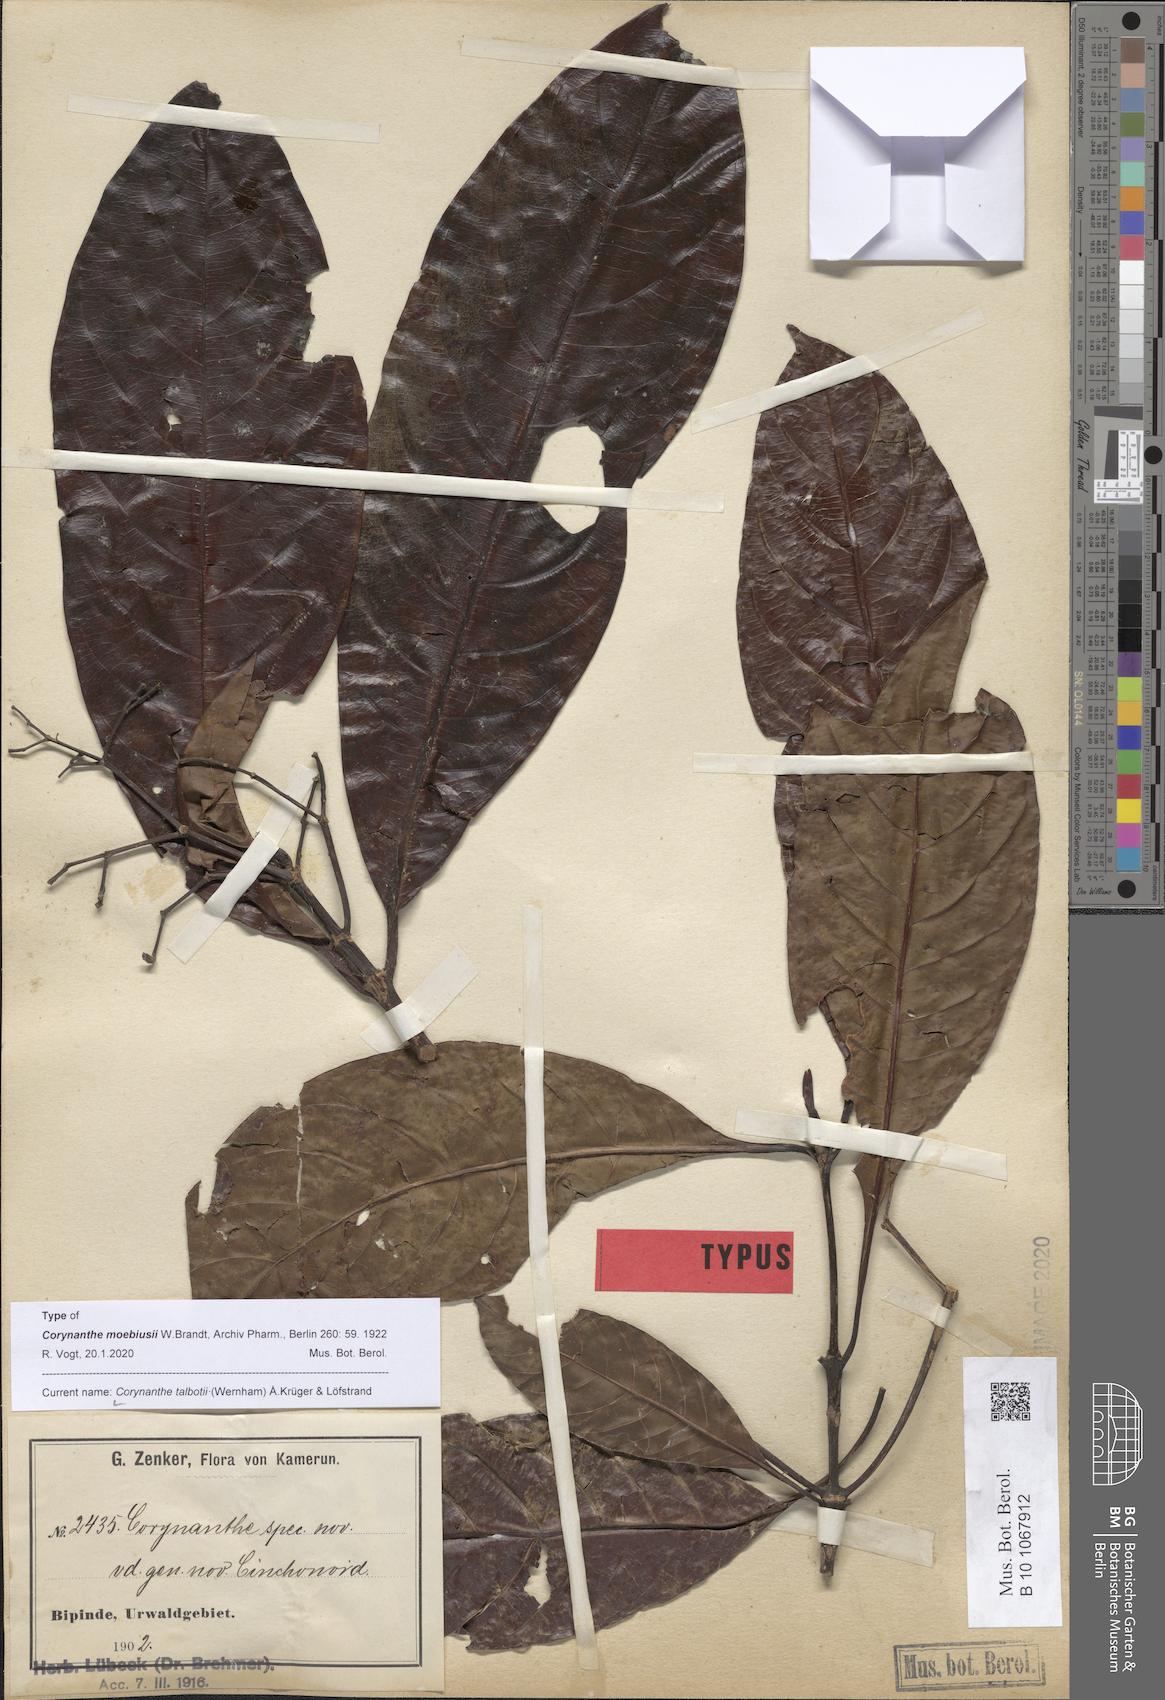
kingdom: Plantae
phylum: Tracheophyta
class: Magnoliopsida
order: Gentianales
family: Rubiaceae
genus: Corynanthe
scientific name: Corynanthe talbotii
